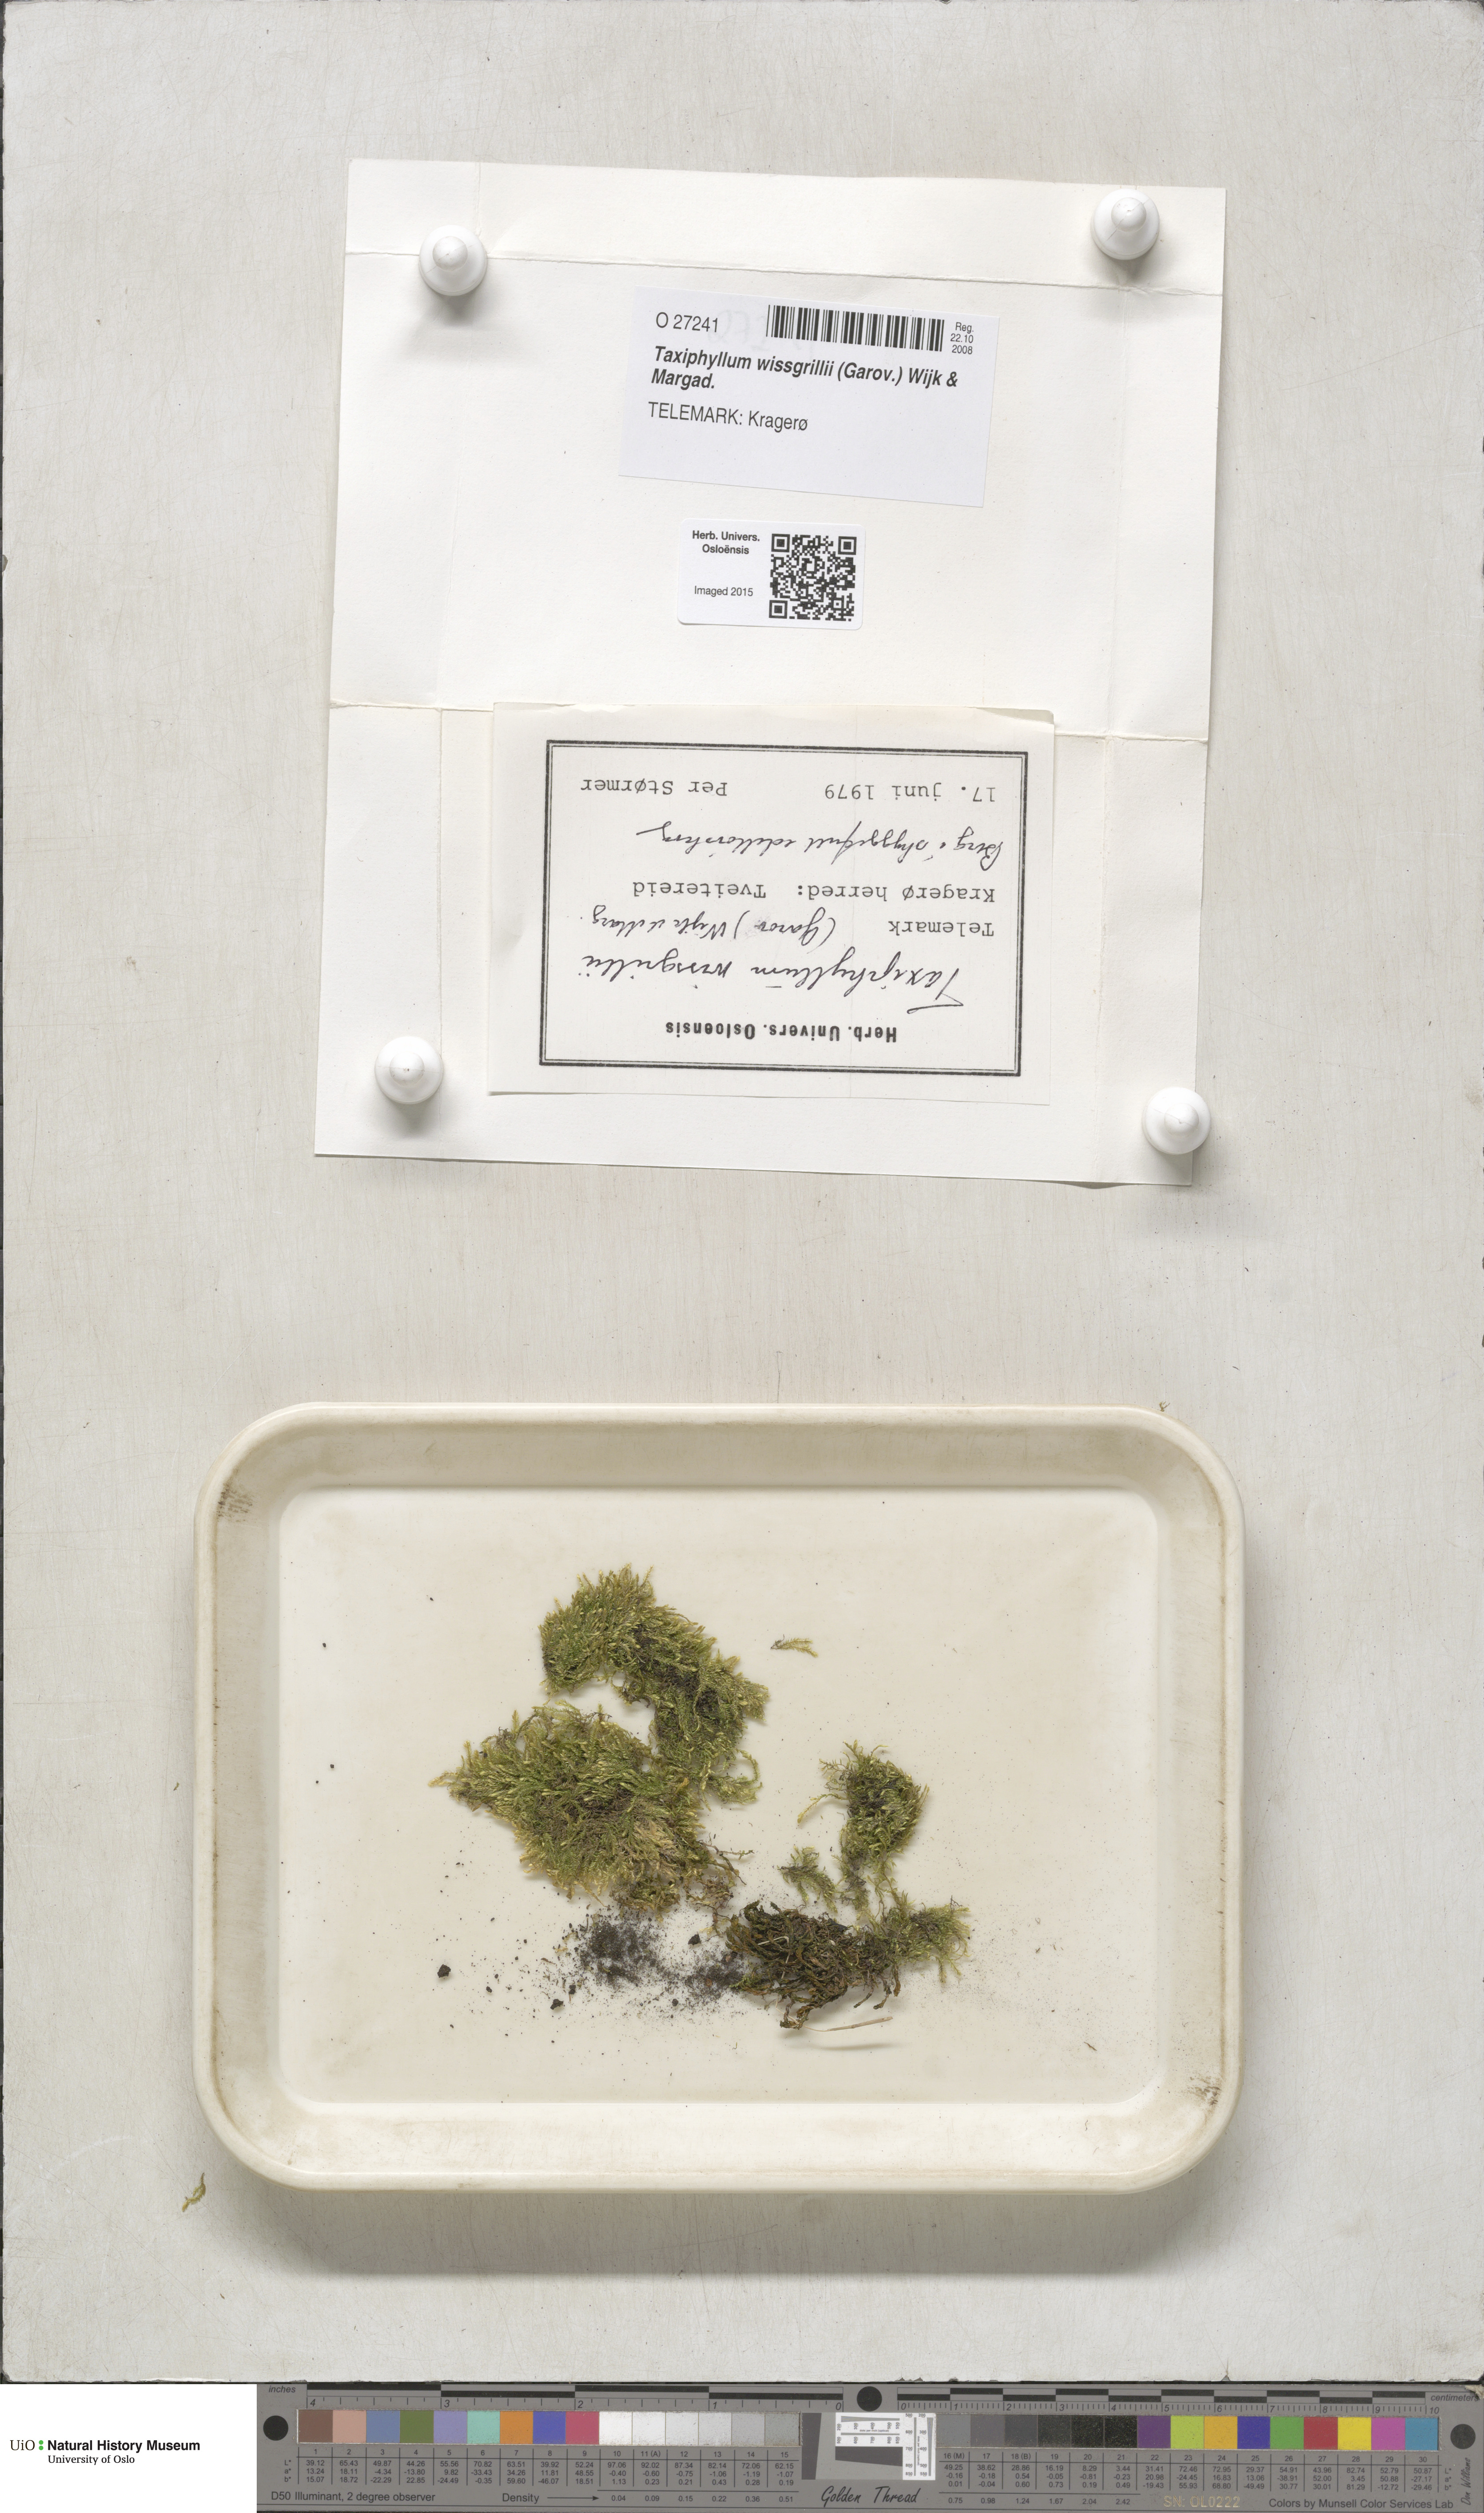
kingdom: Plantae
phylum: Bryophyta
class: Bryopsida
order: Hypnales
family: Taxiphyllaceae
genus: Taxiphyllum
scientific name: Taxiphyllum wissgrillii
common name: Depressed feather-moss
